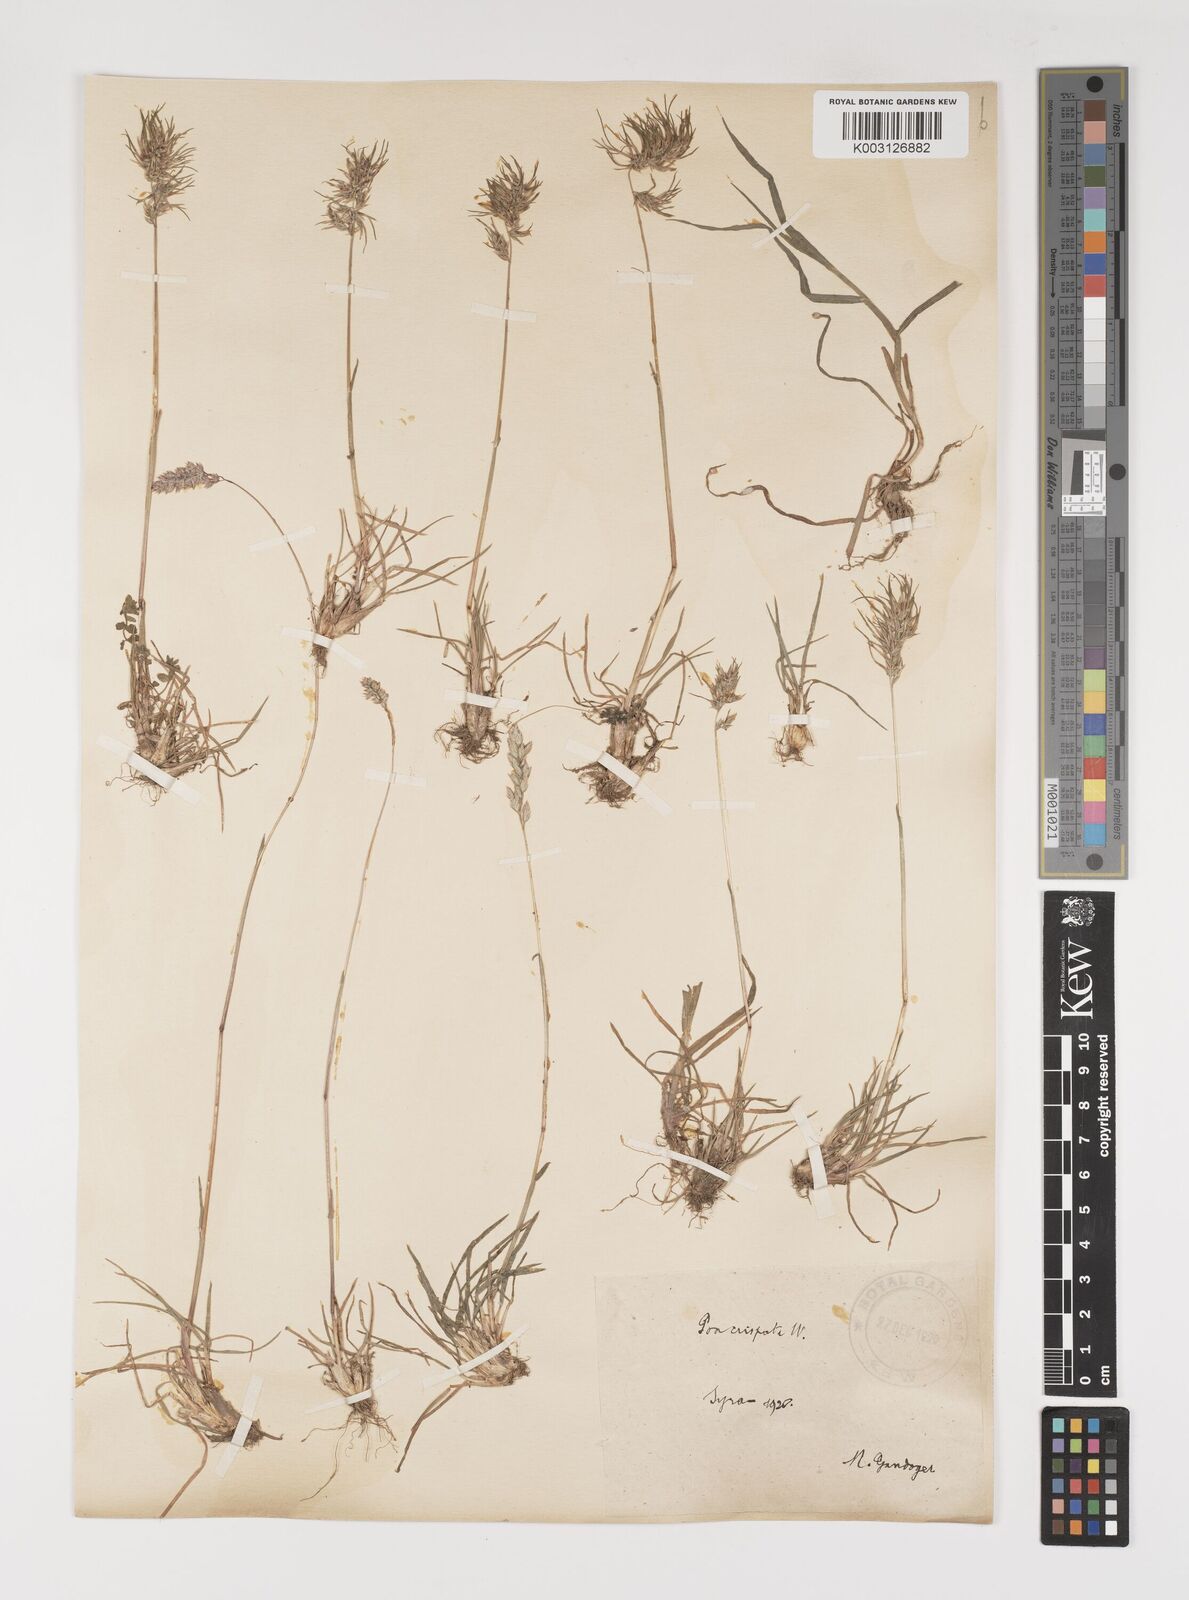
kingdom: Plantae
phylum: Tracheophyta
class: Liliopsida
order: Poales
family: Poaceae
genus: Poa
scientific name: Poa bulbosa
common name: Bulbous bluegrass
